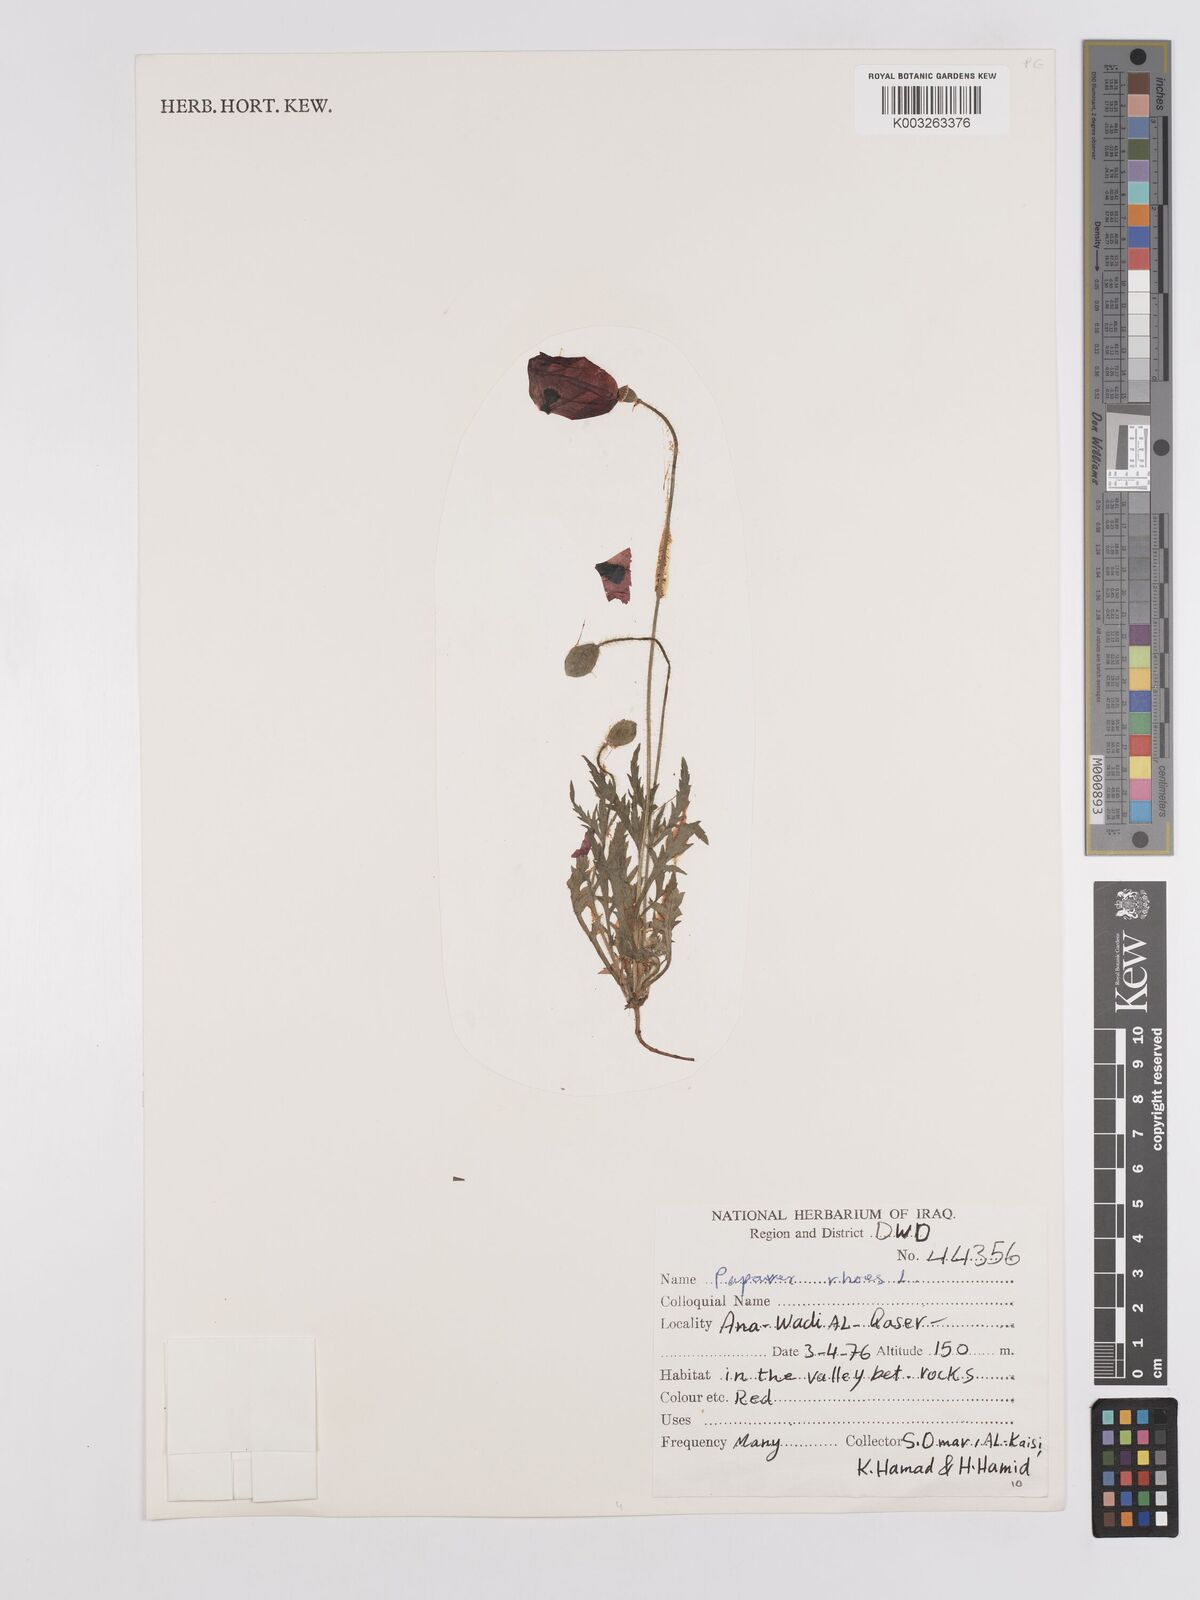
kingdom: Plantae
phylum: Tracheophyta
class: Magnoliopsida
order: Ranunculales
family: Papaveraceae
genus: Papaver
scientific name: Papaver rhoeas
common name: Corn poppy
